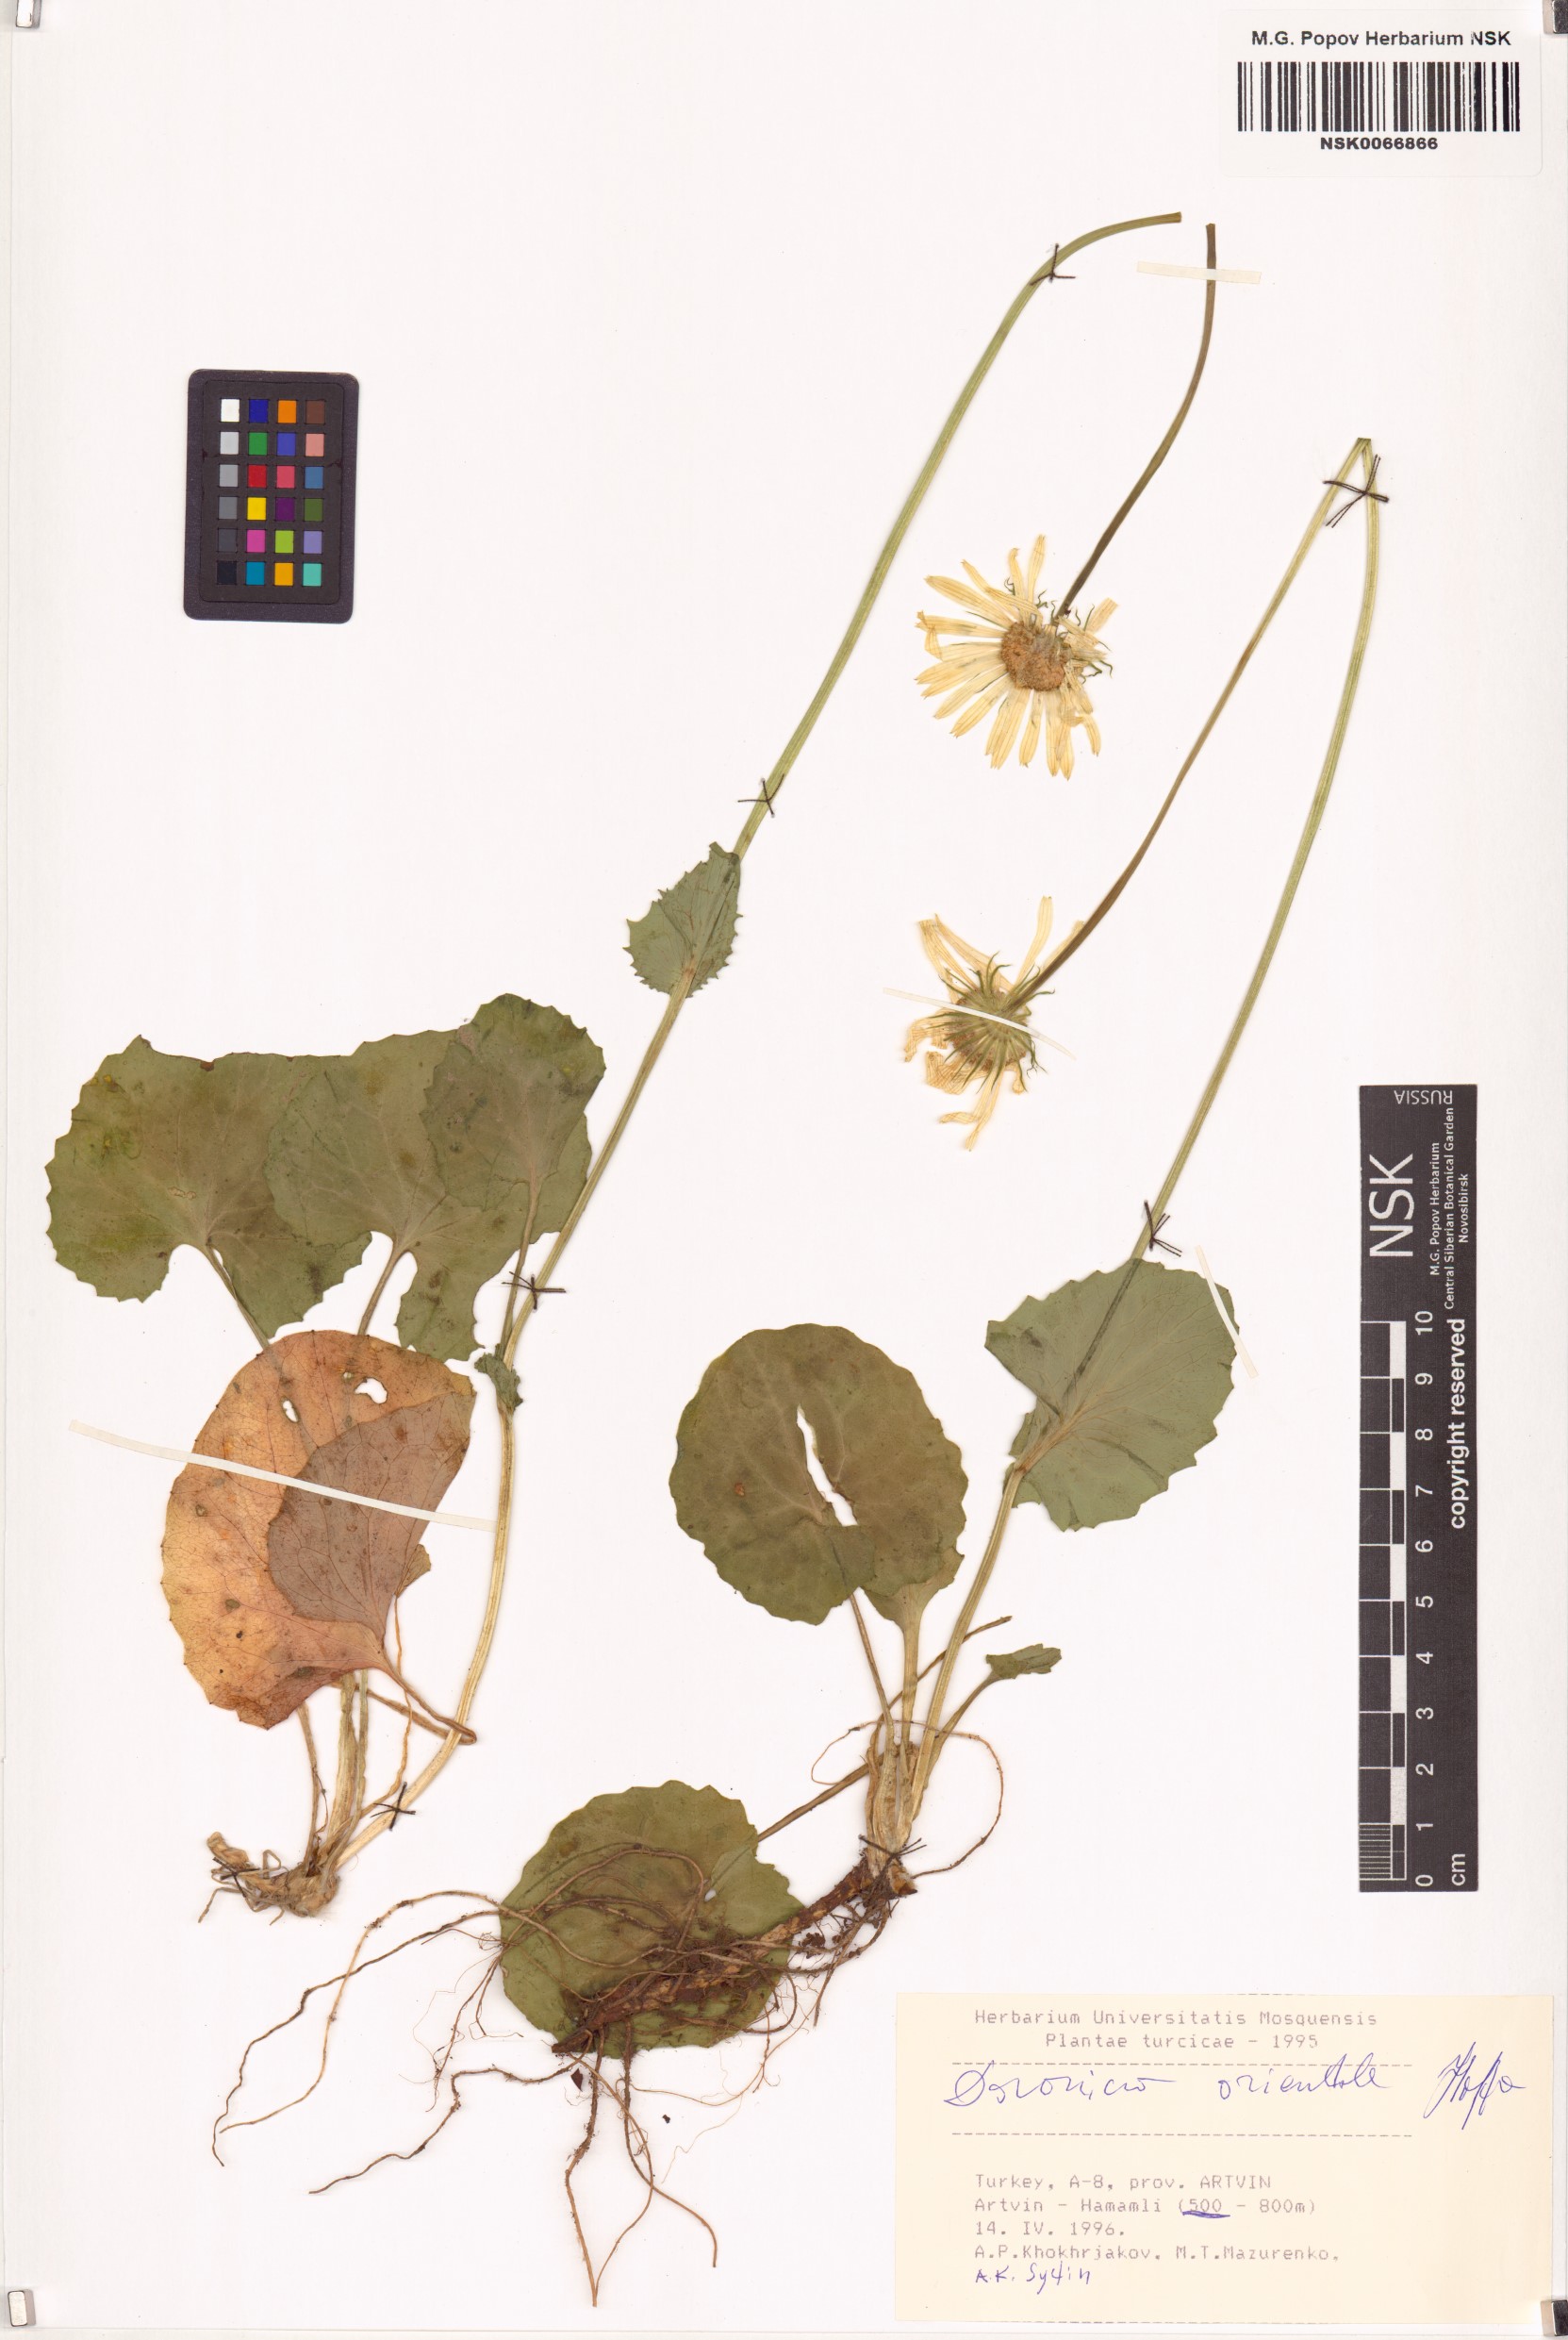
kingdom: Plantae
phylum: Tracheophyta
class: Magnoliopsida
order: Asterales
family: Asteraceae
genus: Doronicum
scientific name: Doronicum orientale
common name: Oriental leopard's-bane
